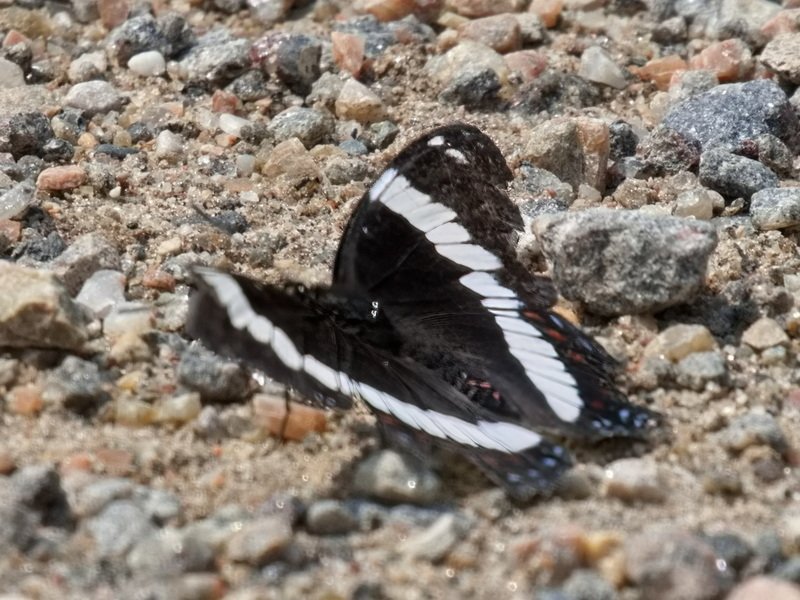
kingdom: Animalia
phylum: Arthropoda
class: Insecta
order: Lepidoptera
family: Nymphalidae
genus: Limenitis
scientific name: Limenitis arthemis
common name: Red-spotted Admiral
